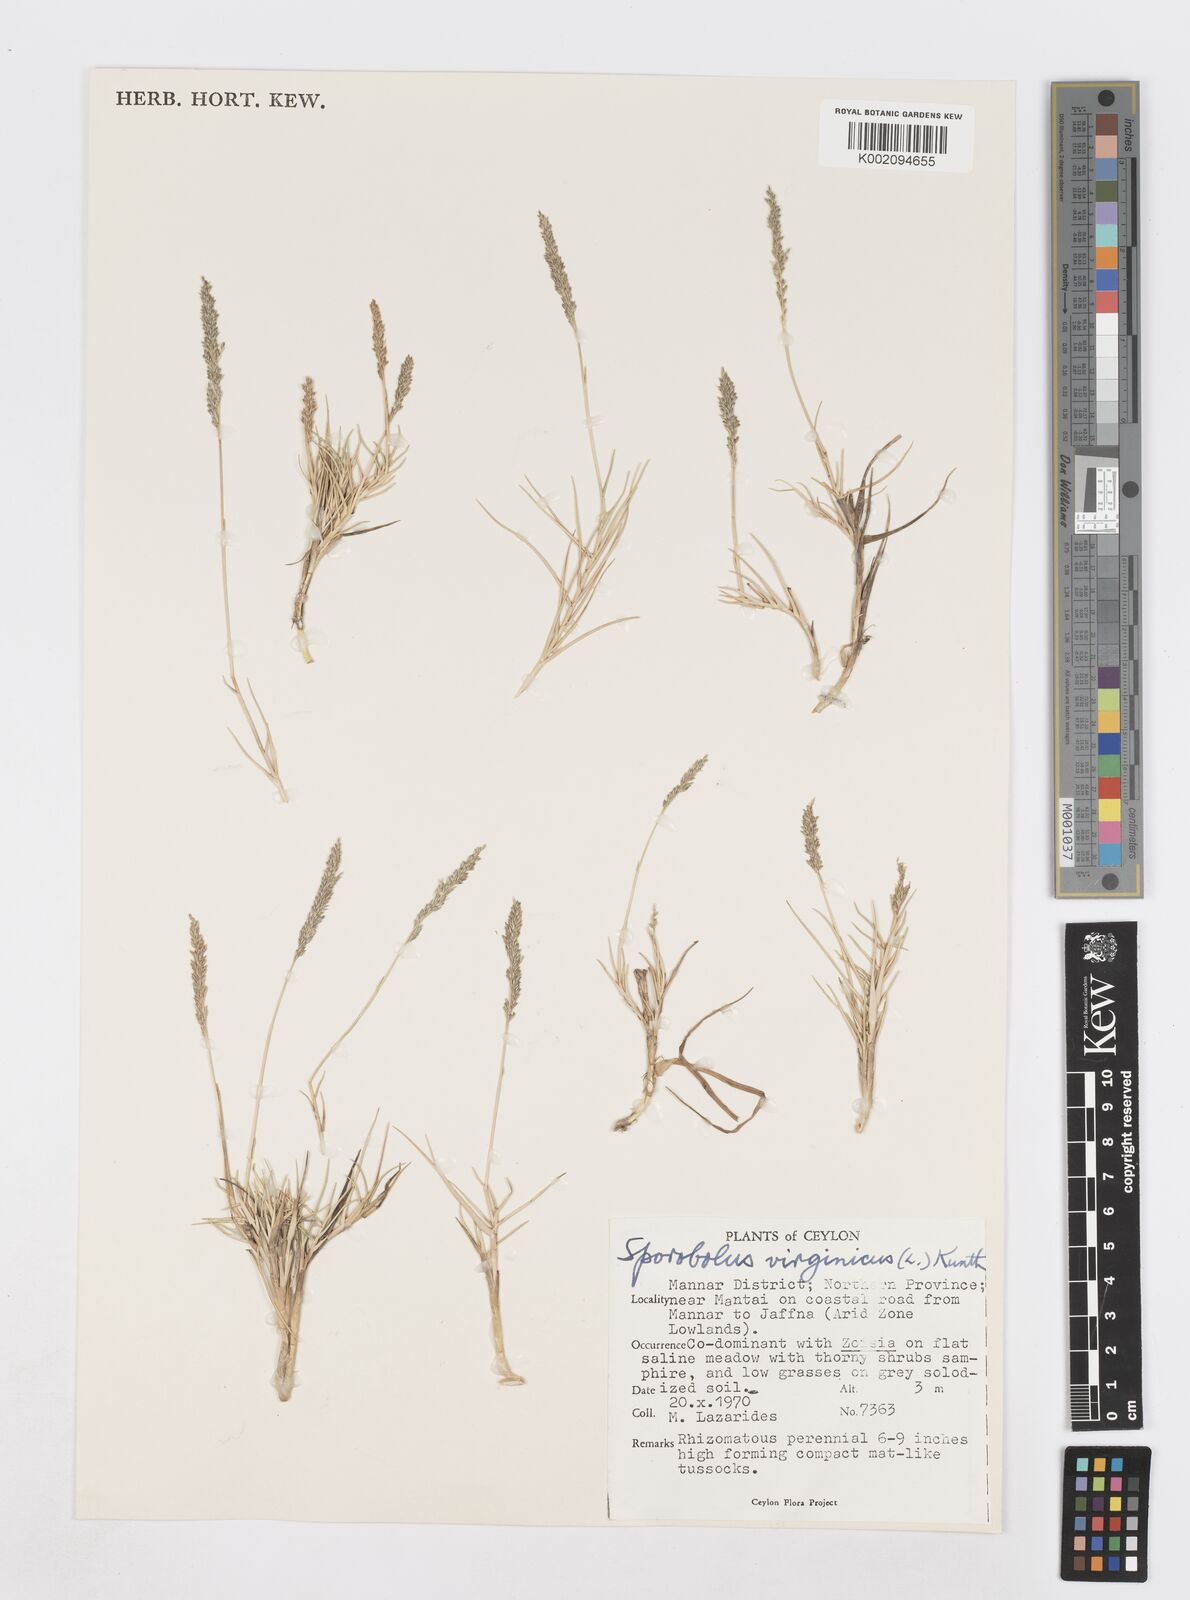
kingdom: Plantae
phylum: Tracheophyta
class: Liliopsida
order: Poales
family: Poaceae
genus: Sporobolus
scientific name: Sporobolus virginicus
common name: Beach dropseed
